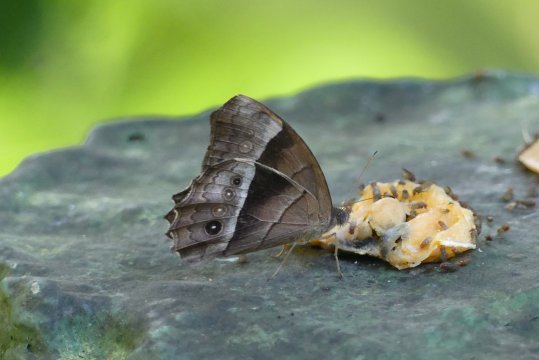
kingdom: Animalia
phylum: Arthropoda
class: Insecta
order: Lepidoptera
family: Nymphalidae
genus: Taygetis
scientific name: Taygetis andromeda
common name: Uzza Satyr
